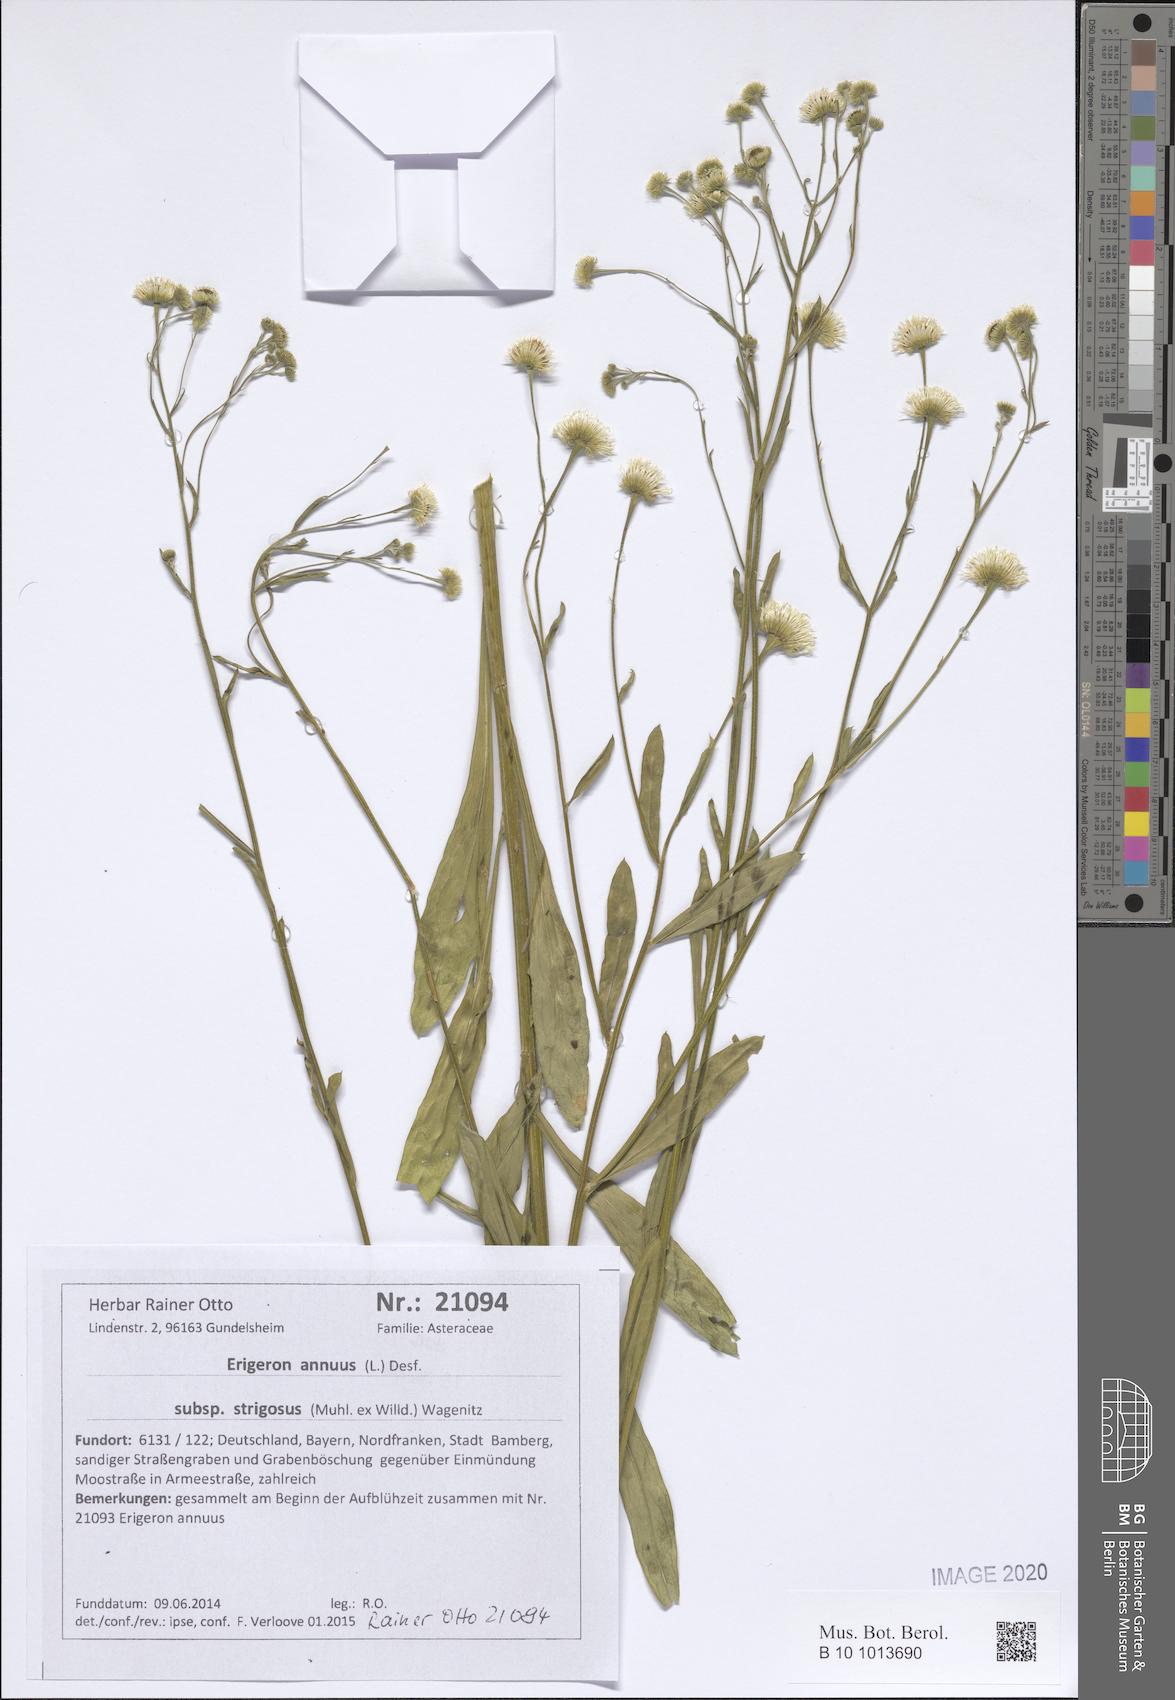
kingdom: Plantae
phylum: Tracheophyta
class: Magnoliopsida
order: Asterales
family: Asteraceae
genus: Erigeron
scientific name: Erigeron strigosus
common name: Common eastern fleabane
